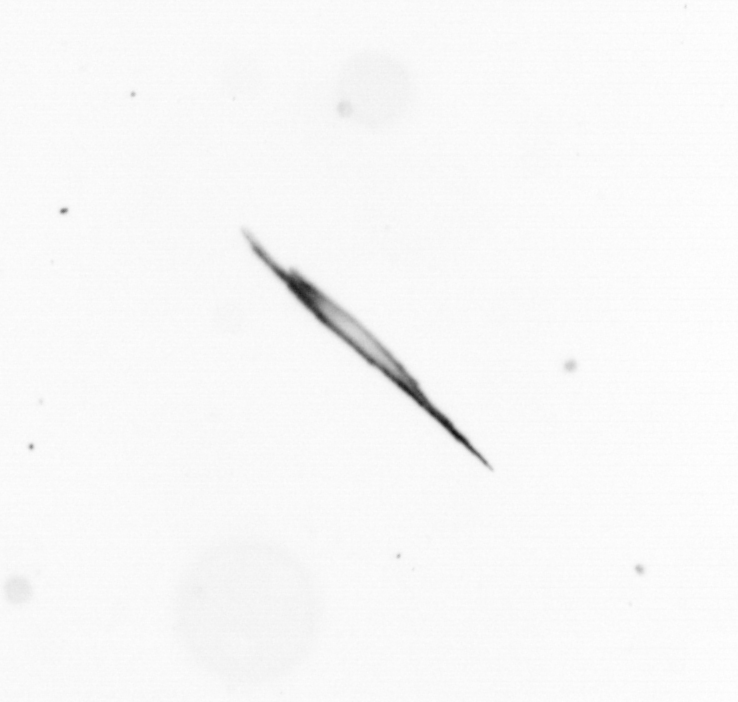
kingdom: Bacteria
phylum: Cyanobacteria
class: Cyanobacteriia
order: Cyanobacteriales
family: Microcoleaceae
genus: Trichodesmium
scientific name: Trichodesmium
